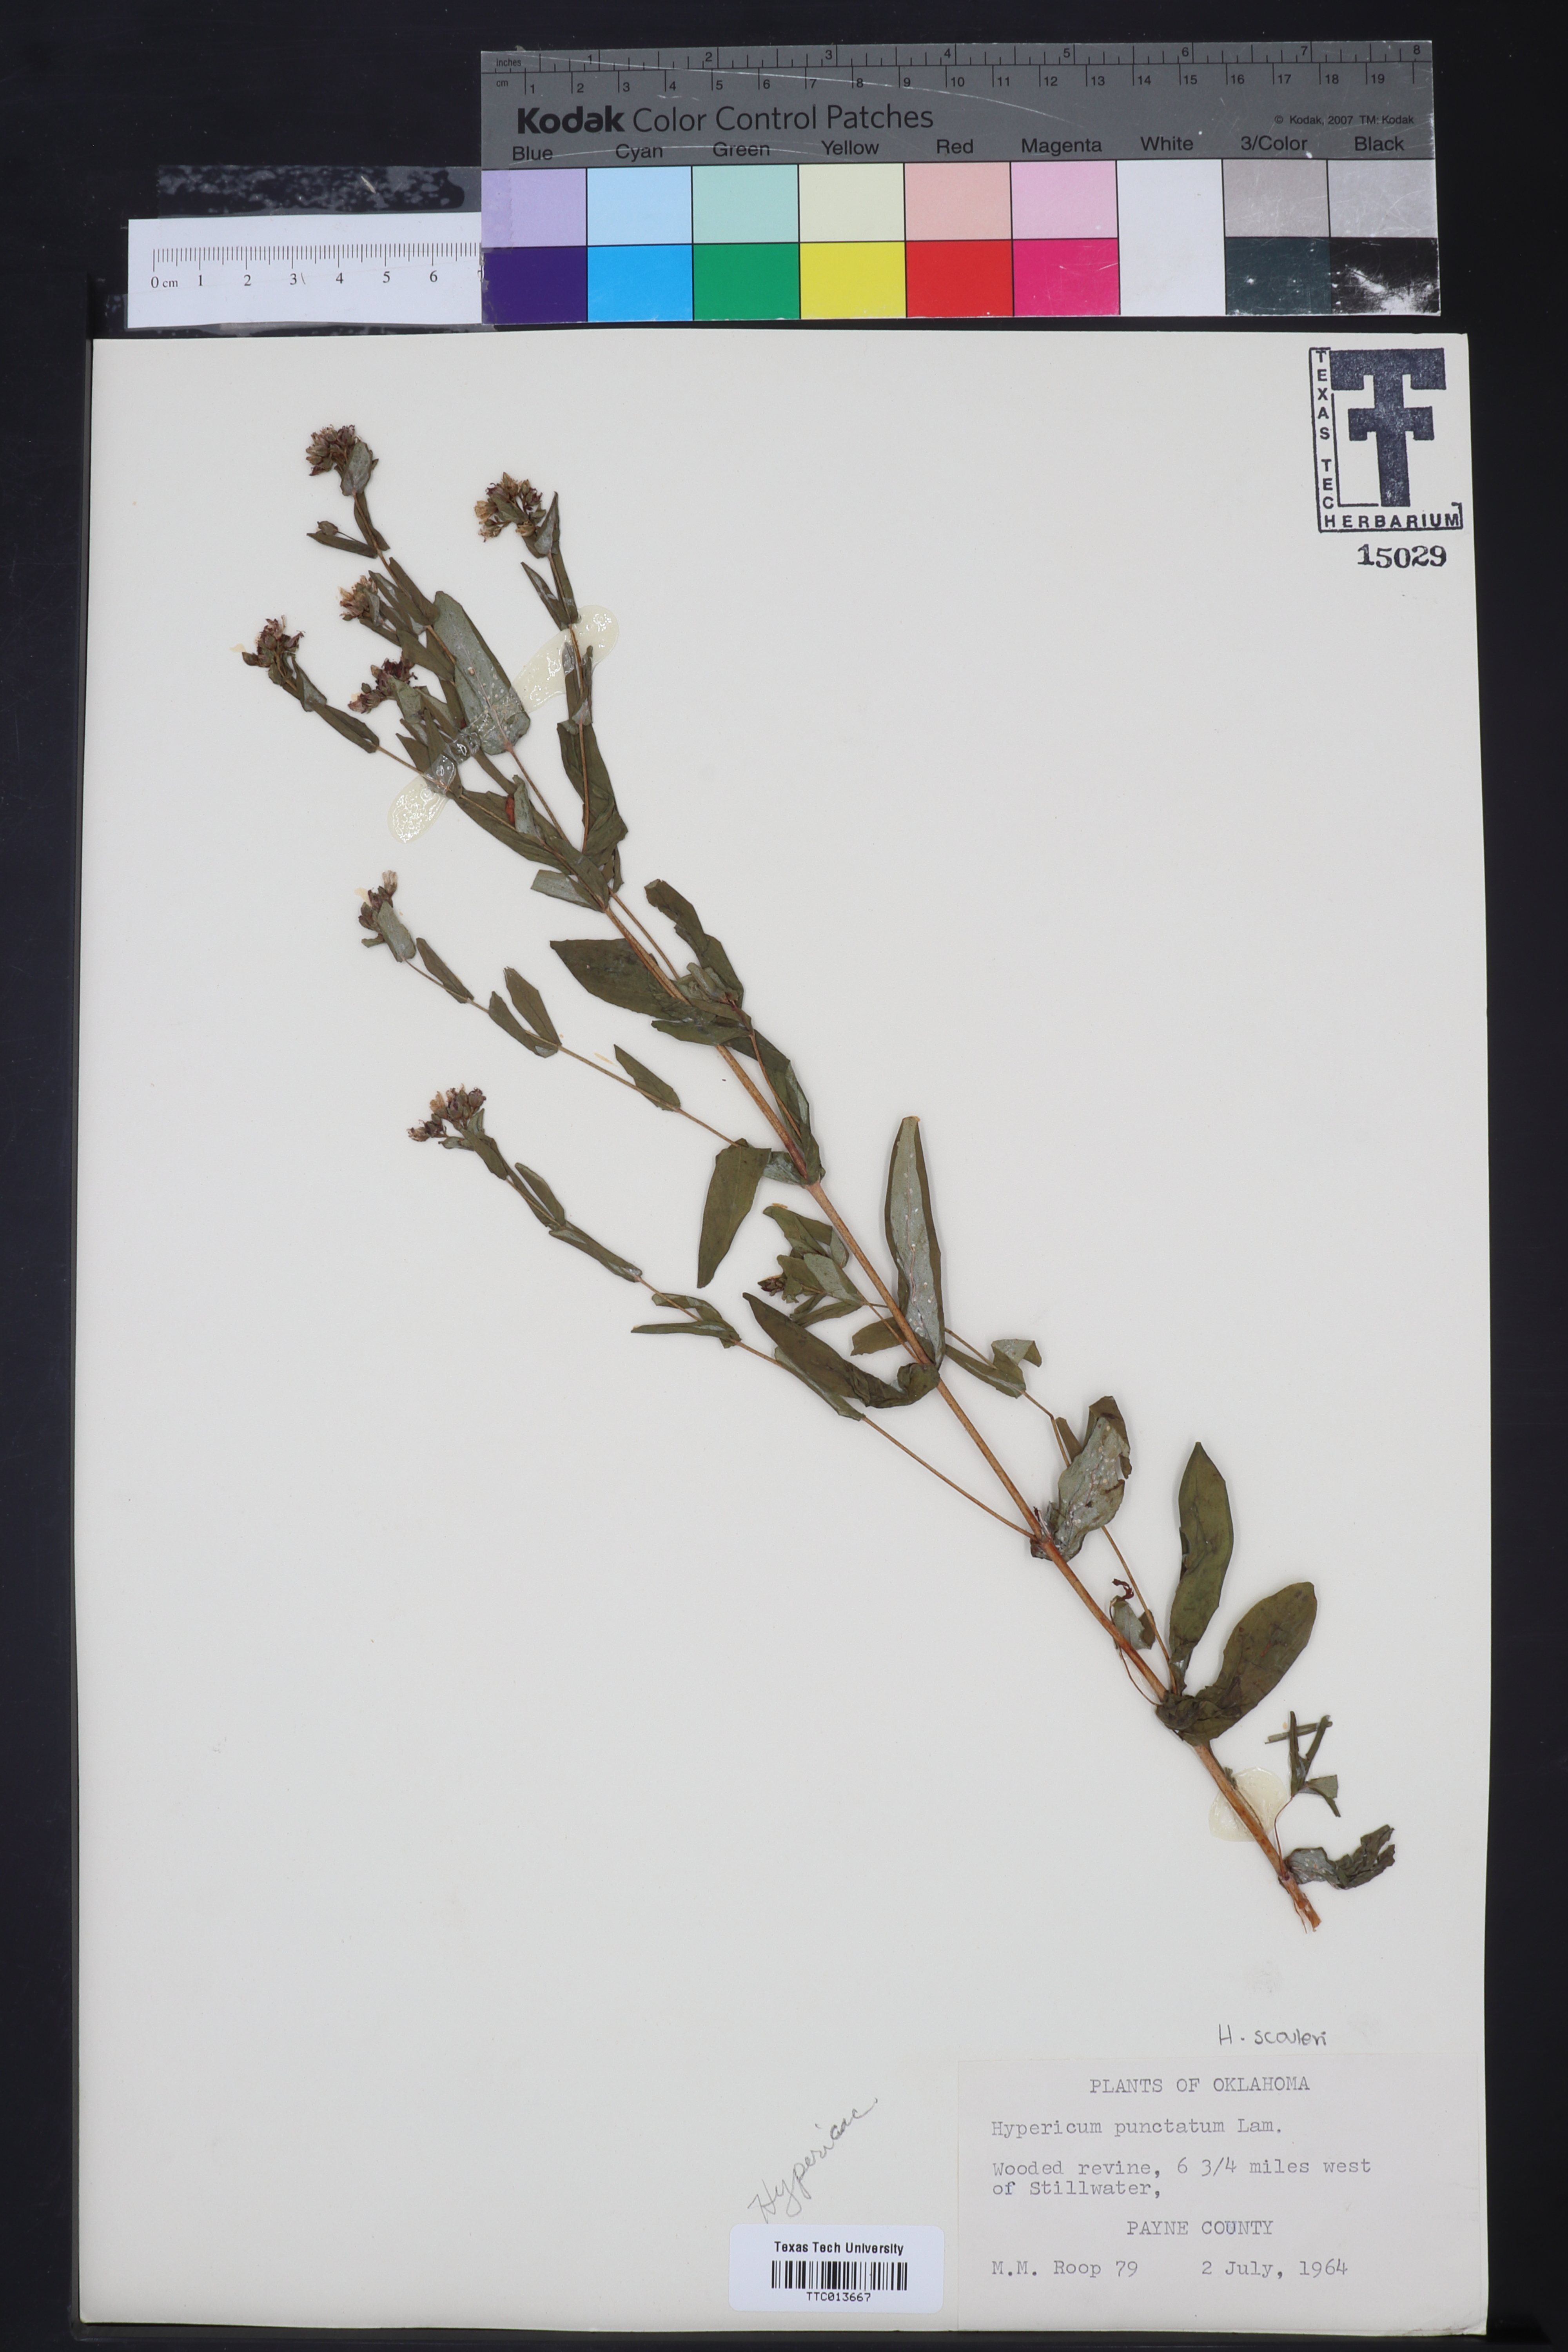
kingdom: Plantae
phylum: Tracheophyta
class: Magnoliopsida
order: Malpighiales
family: Hypericaceae
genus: Hypericum
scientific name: Hypericum punctatum
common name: Spotted st. john's-wort
